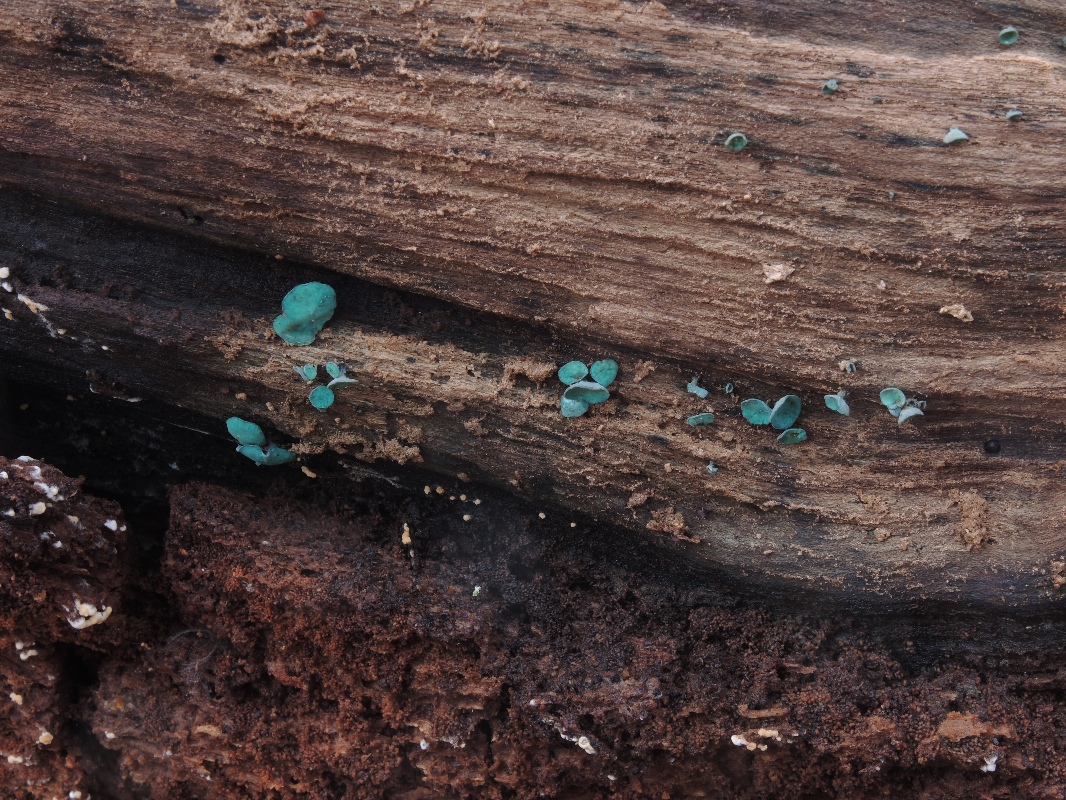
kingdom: Fungi
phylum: Ascomycota
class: Leotiomycetes
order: Helotiales
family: Chlorociboriaceae
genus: Chlorociboria
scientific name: Chlorociboria aeruginascens
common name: almindelig grønskive
